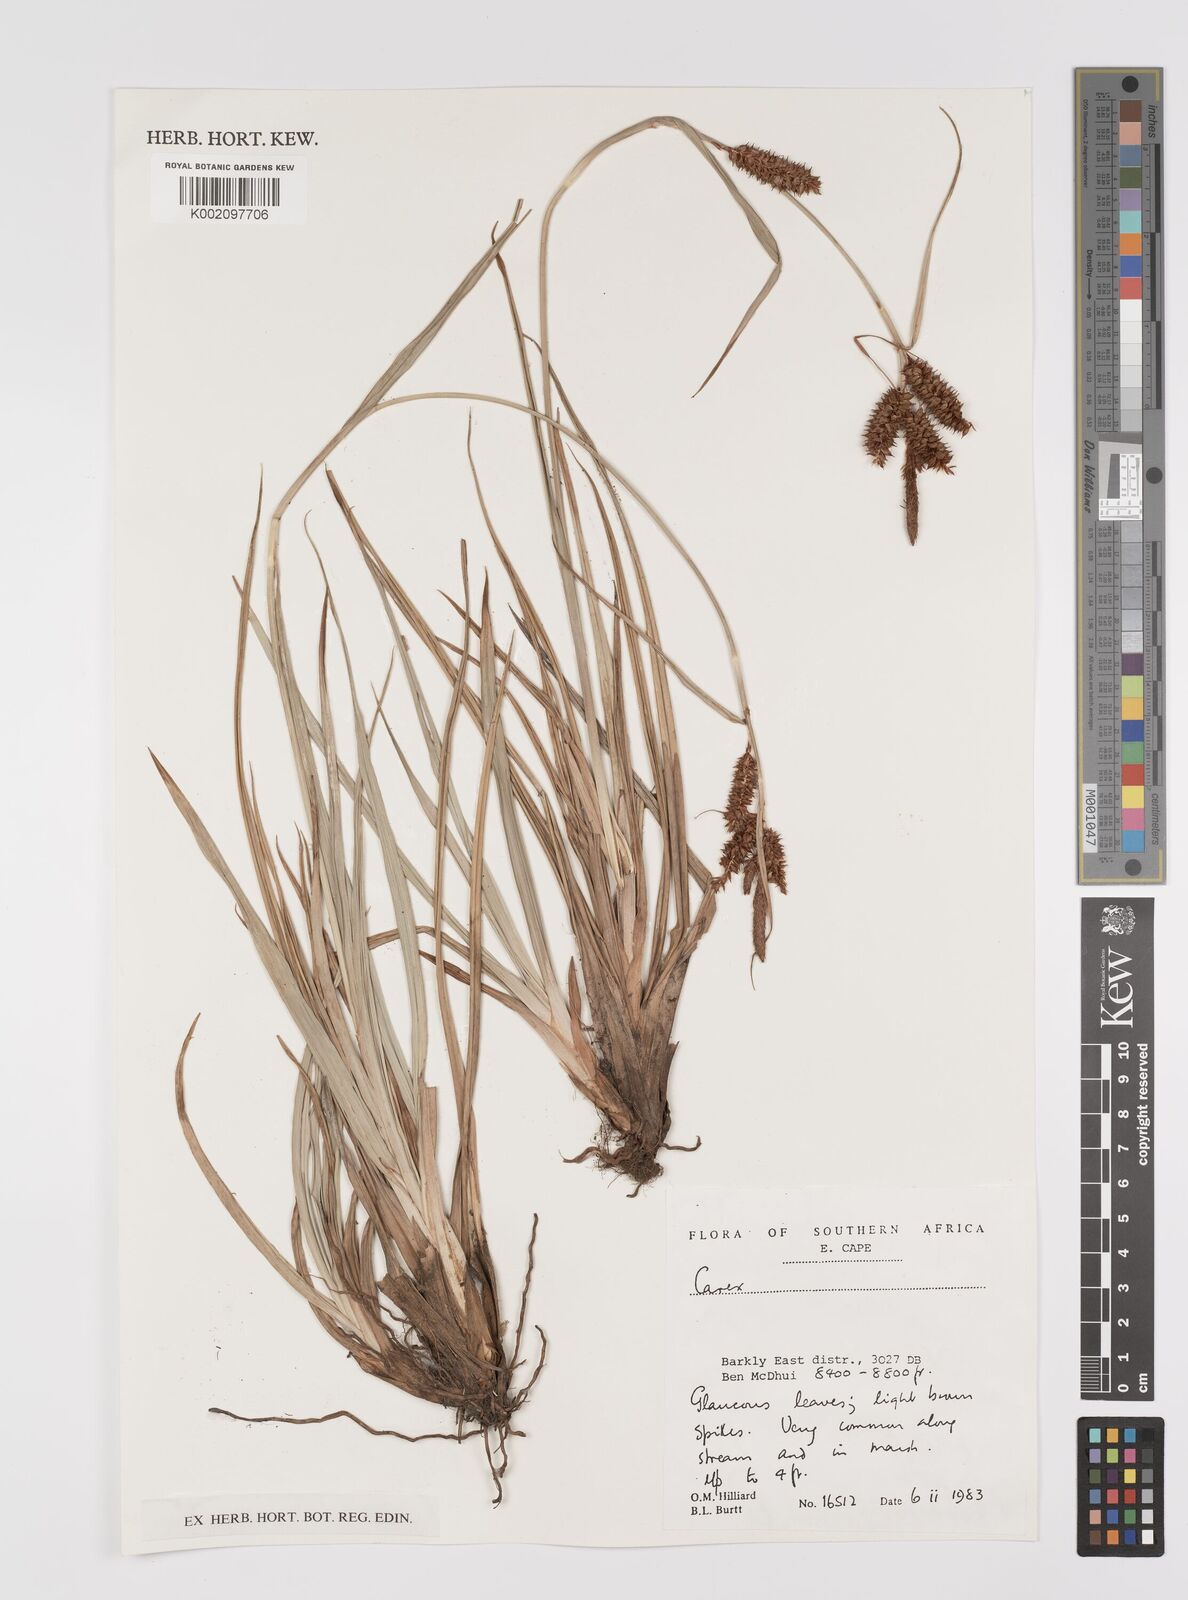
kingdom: Plantae
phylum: Tracheophyta
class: Liliopsida
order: Poales
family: Cyperaceae
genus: Carex
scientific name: Carex
